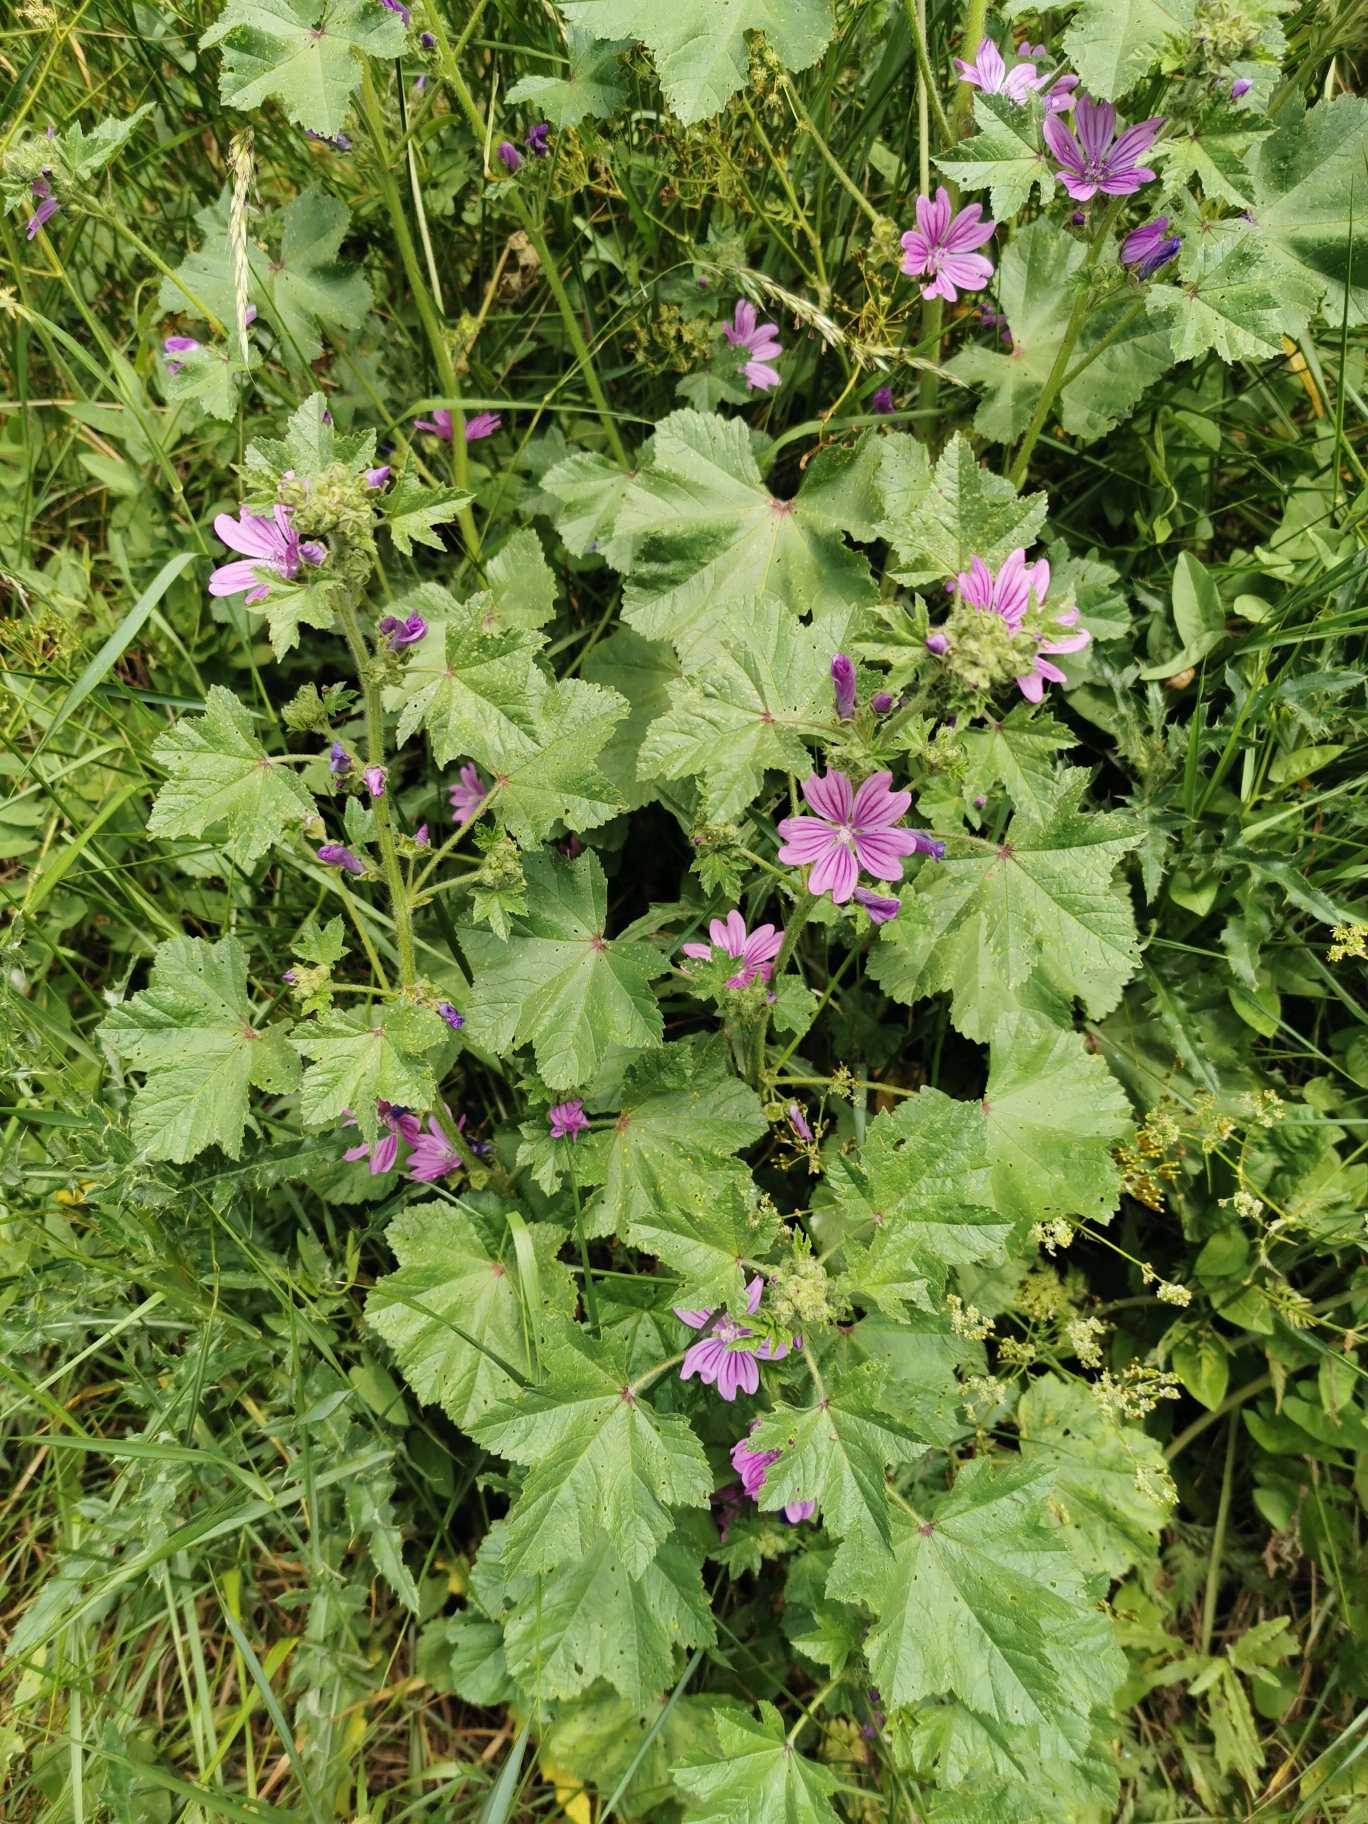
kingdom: Plantae
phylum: Tracheophyta
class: Magnoliopsida
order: Malvales
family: Malvaceae
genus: Malva
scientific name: Malva sylvestris
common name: Almindelig katost
